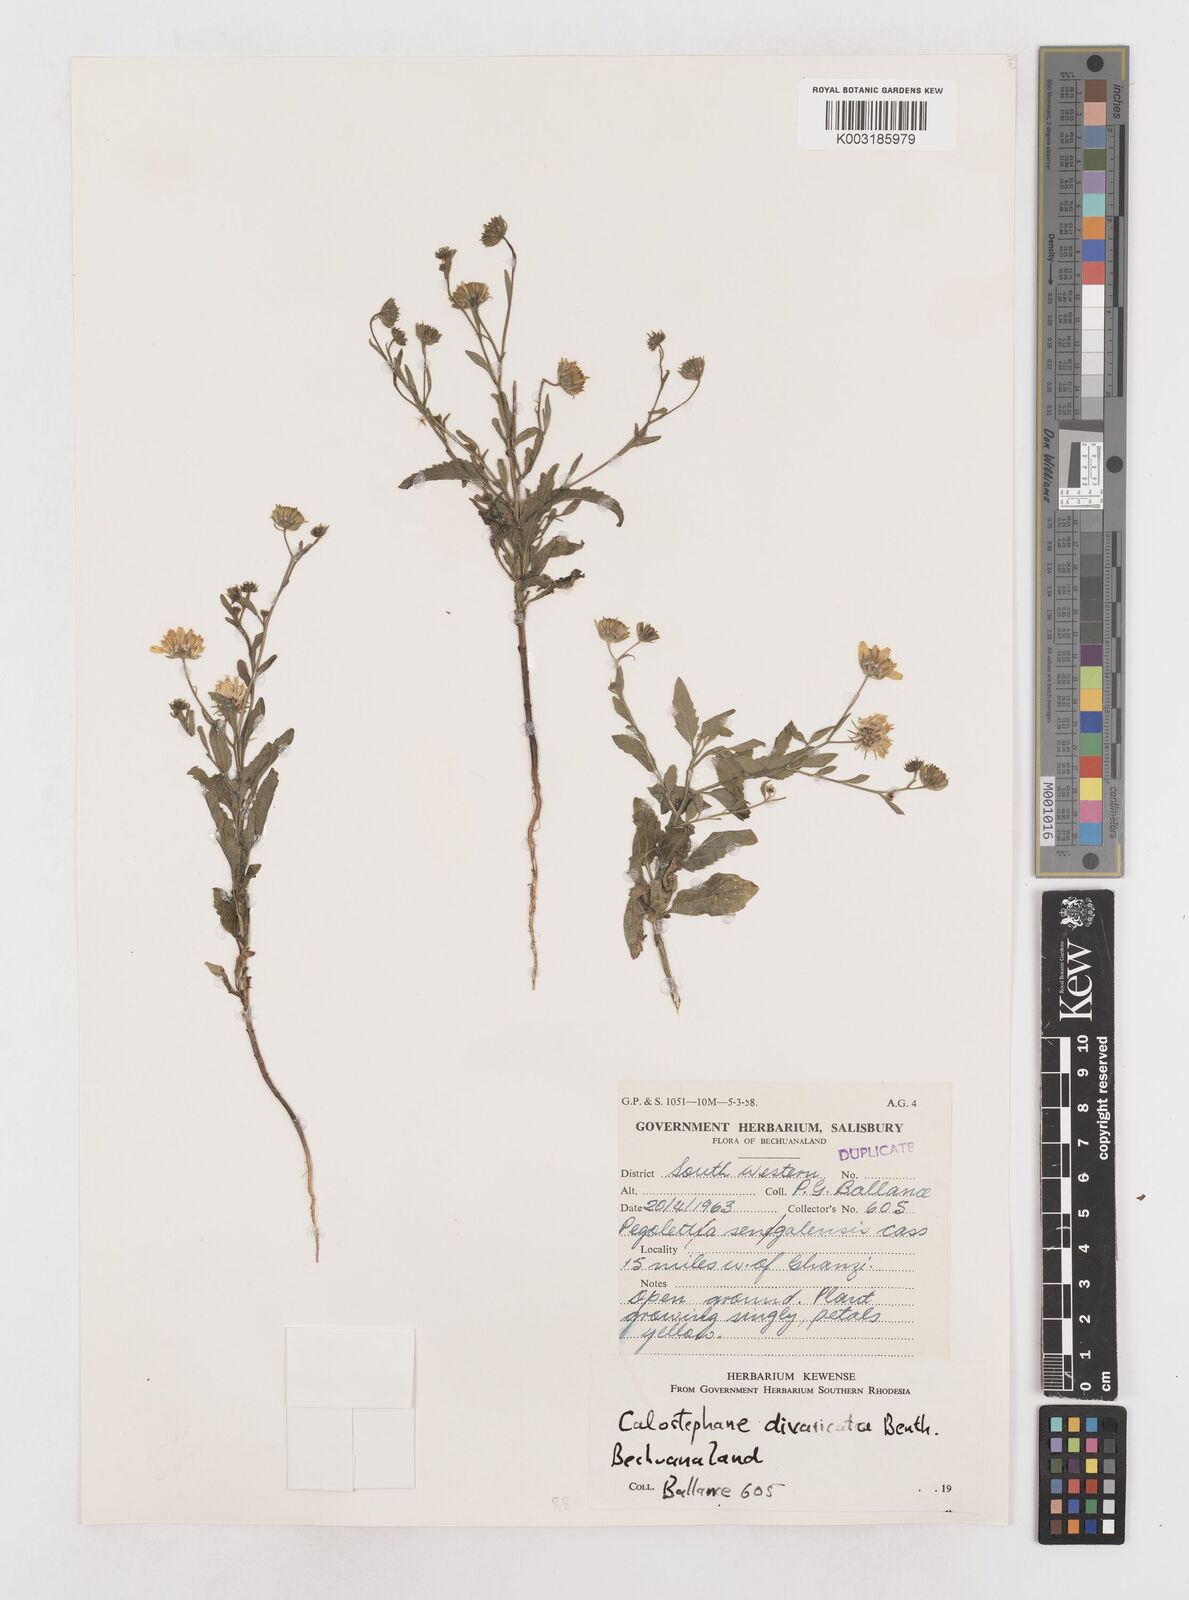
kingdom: Plantae
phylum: Tracheophyta
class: Magnoliopsida
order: Asterales
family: Asteraceae
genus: Calostephane
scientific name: Calostephane divaricata
